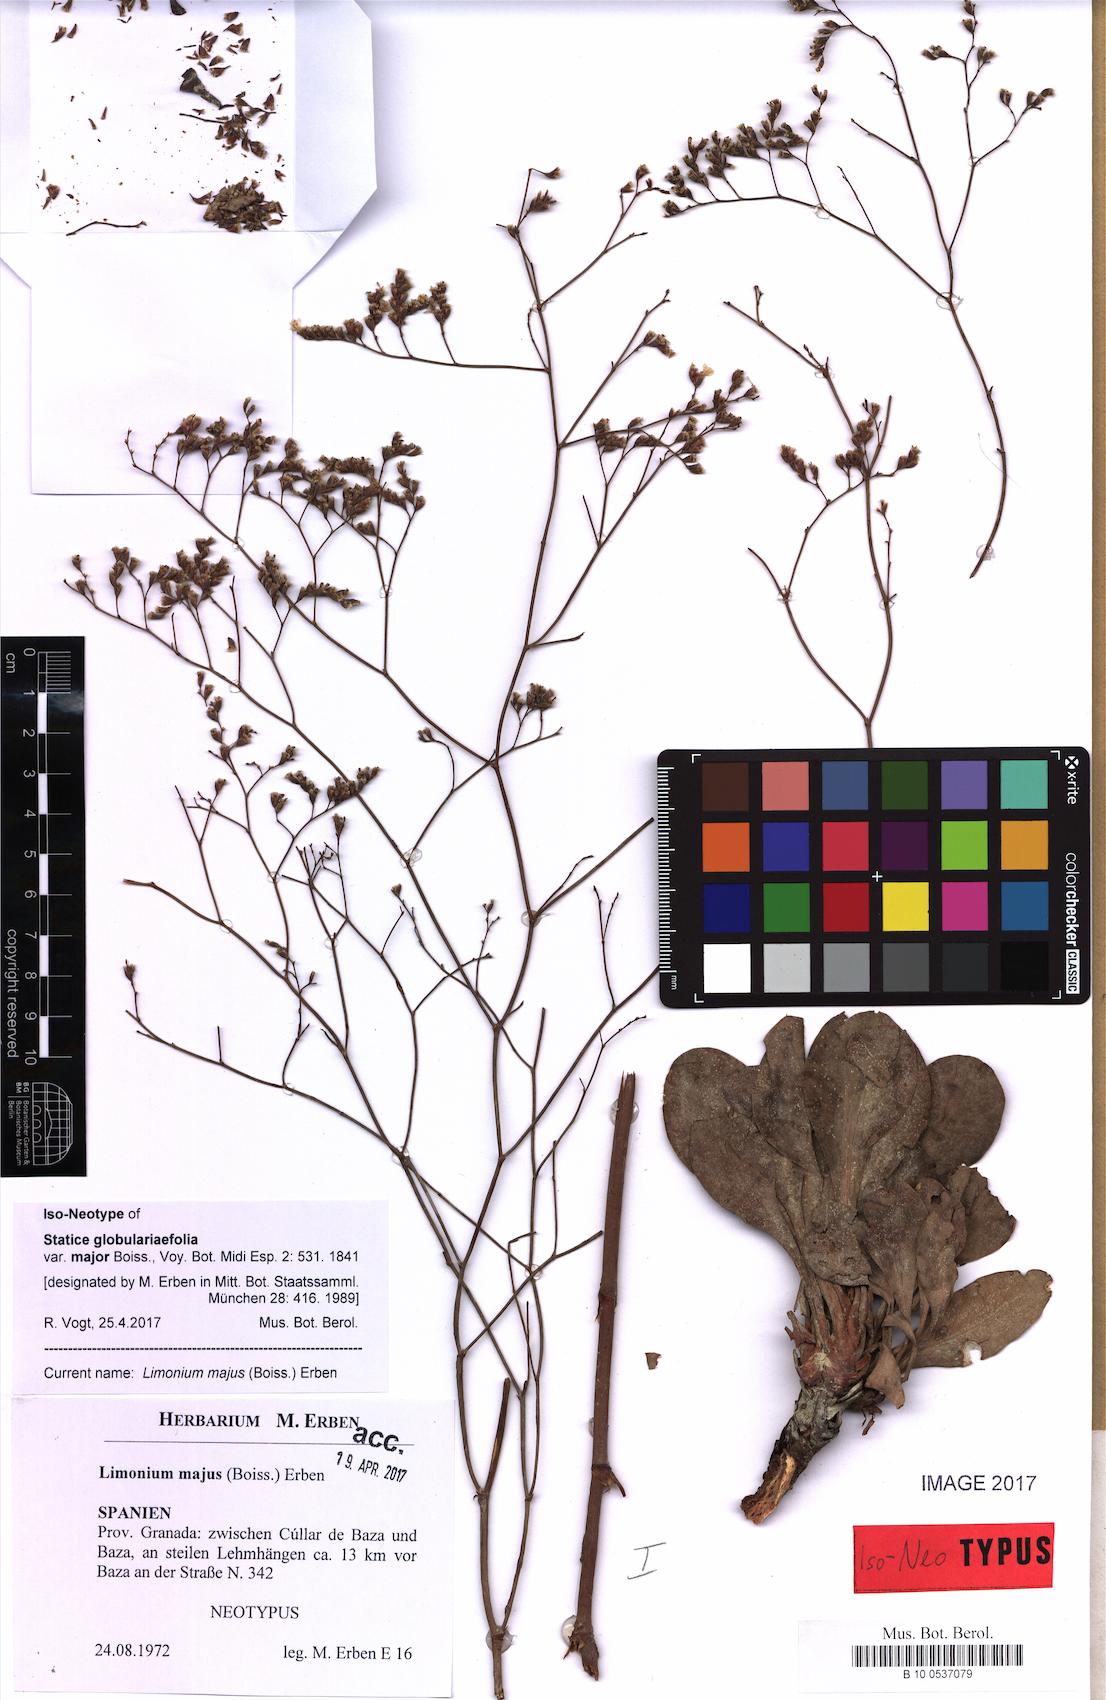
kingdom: Plantae
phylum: Tracheophyta
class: Magnoliopsida
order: Caryophyllales
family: Plumbaginaceae
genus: Limonium
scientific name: Limonium majus
